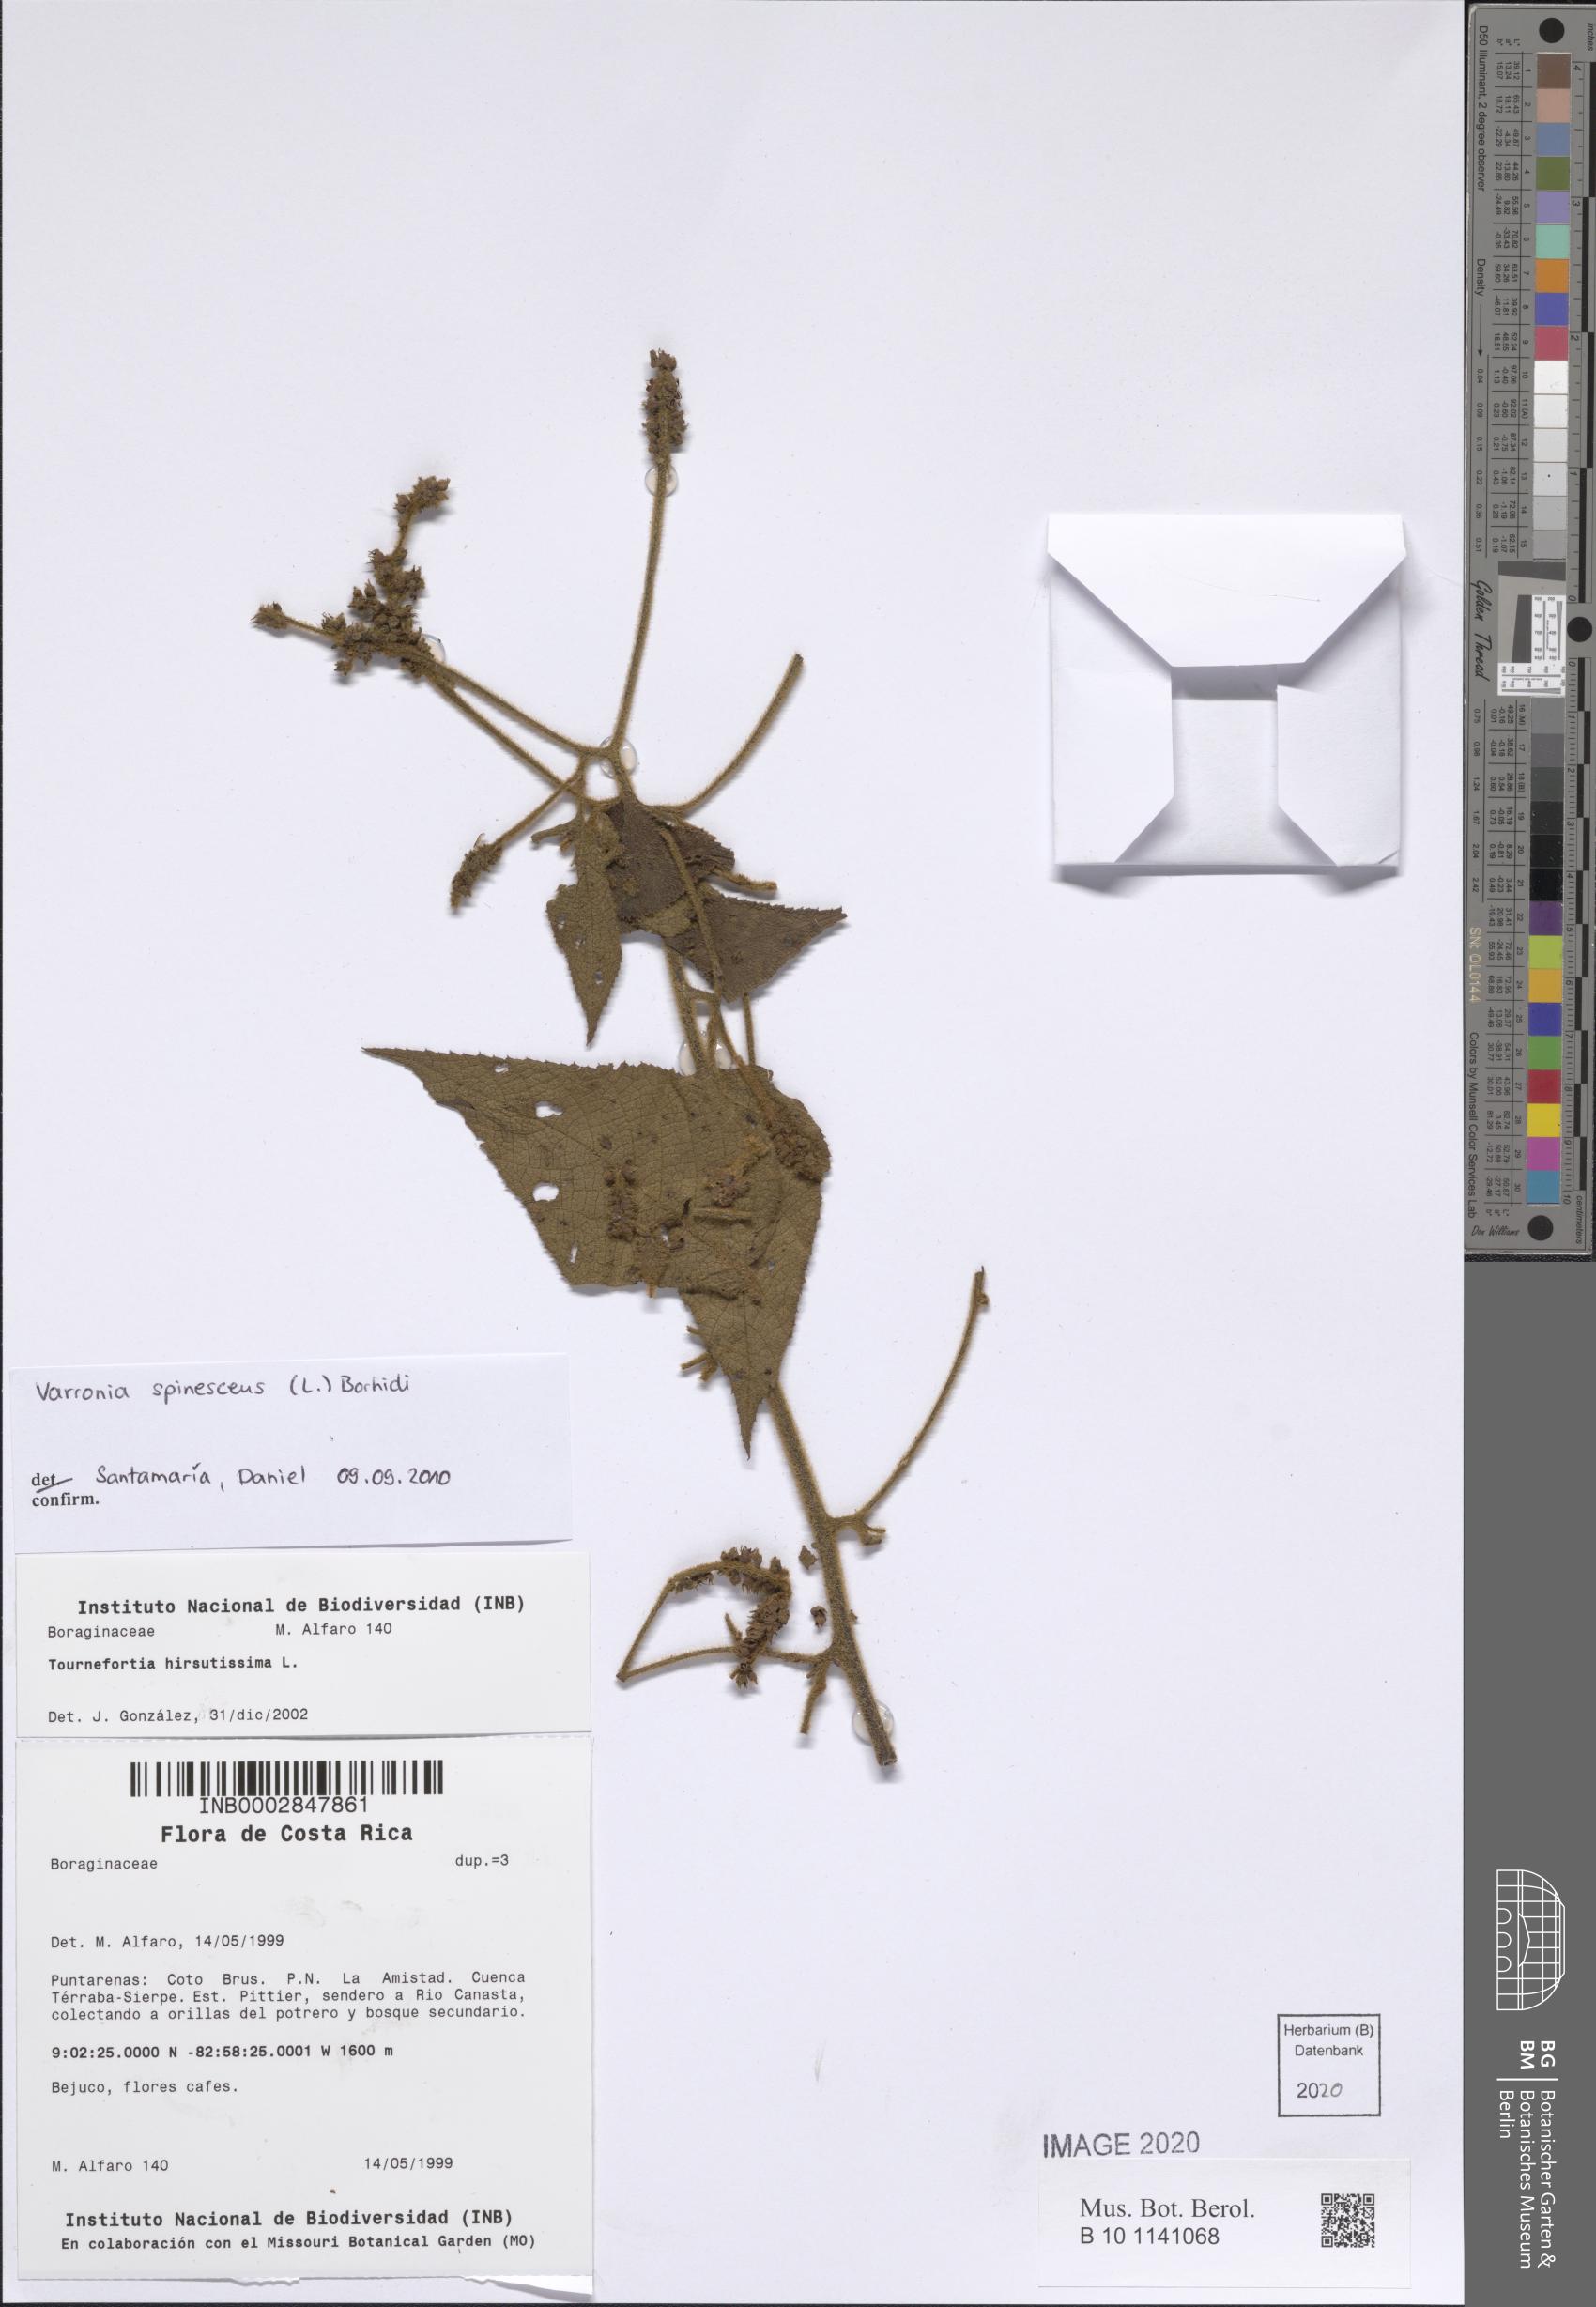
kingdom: Plantae
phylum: Tracheophyta
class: Magnoliopsida
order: Boraginales
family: Cordiaceae
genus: Varronia
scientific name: Varronia spinescens
